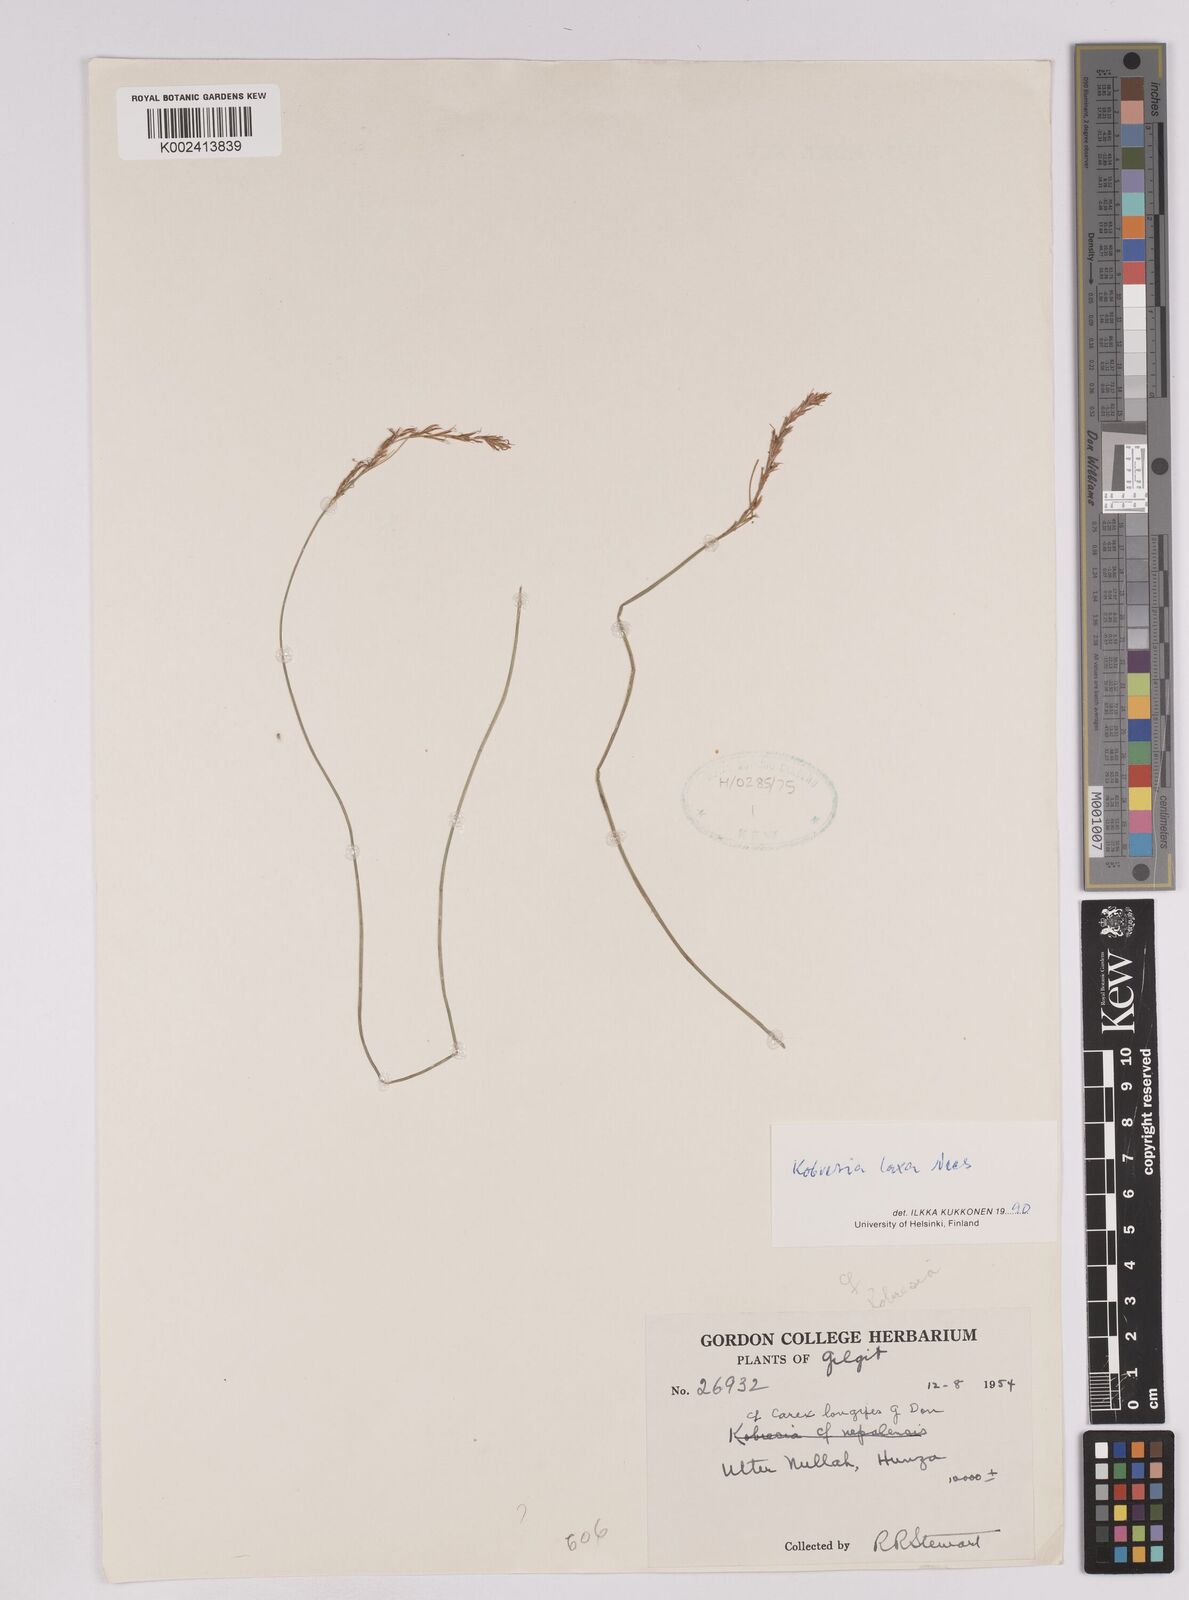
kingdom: Plantae
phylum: Tracheophyta
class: Liliopsida
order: Poales
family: Cyperaceae
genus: Carex
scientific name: Carex pseudolaxa
